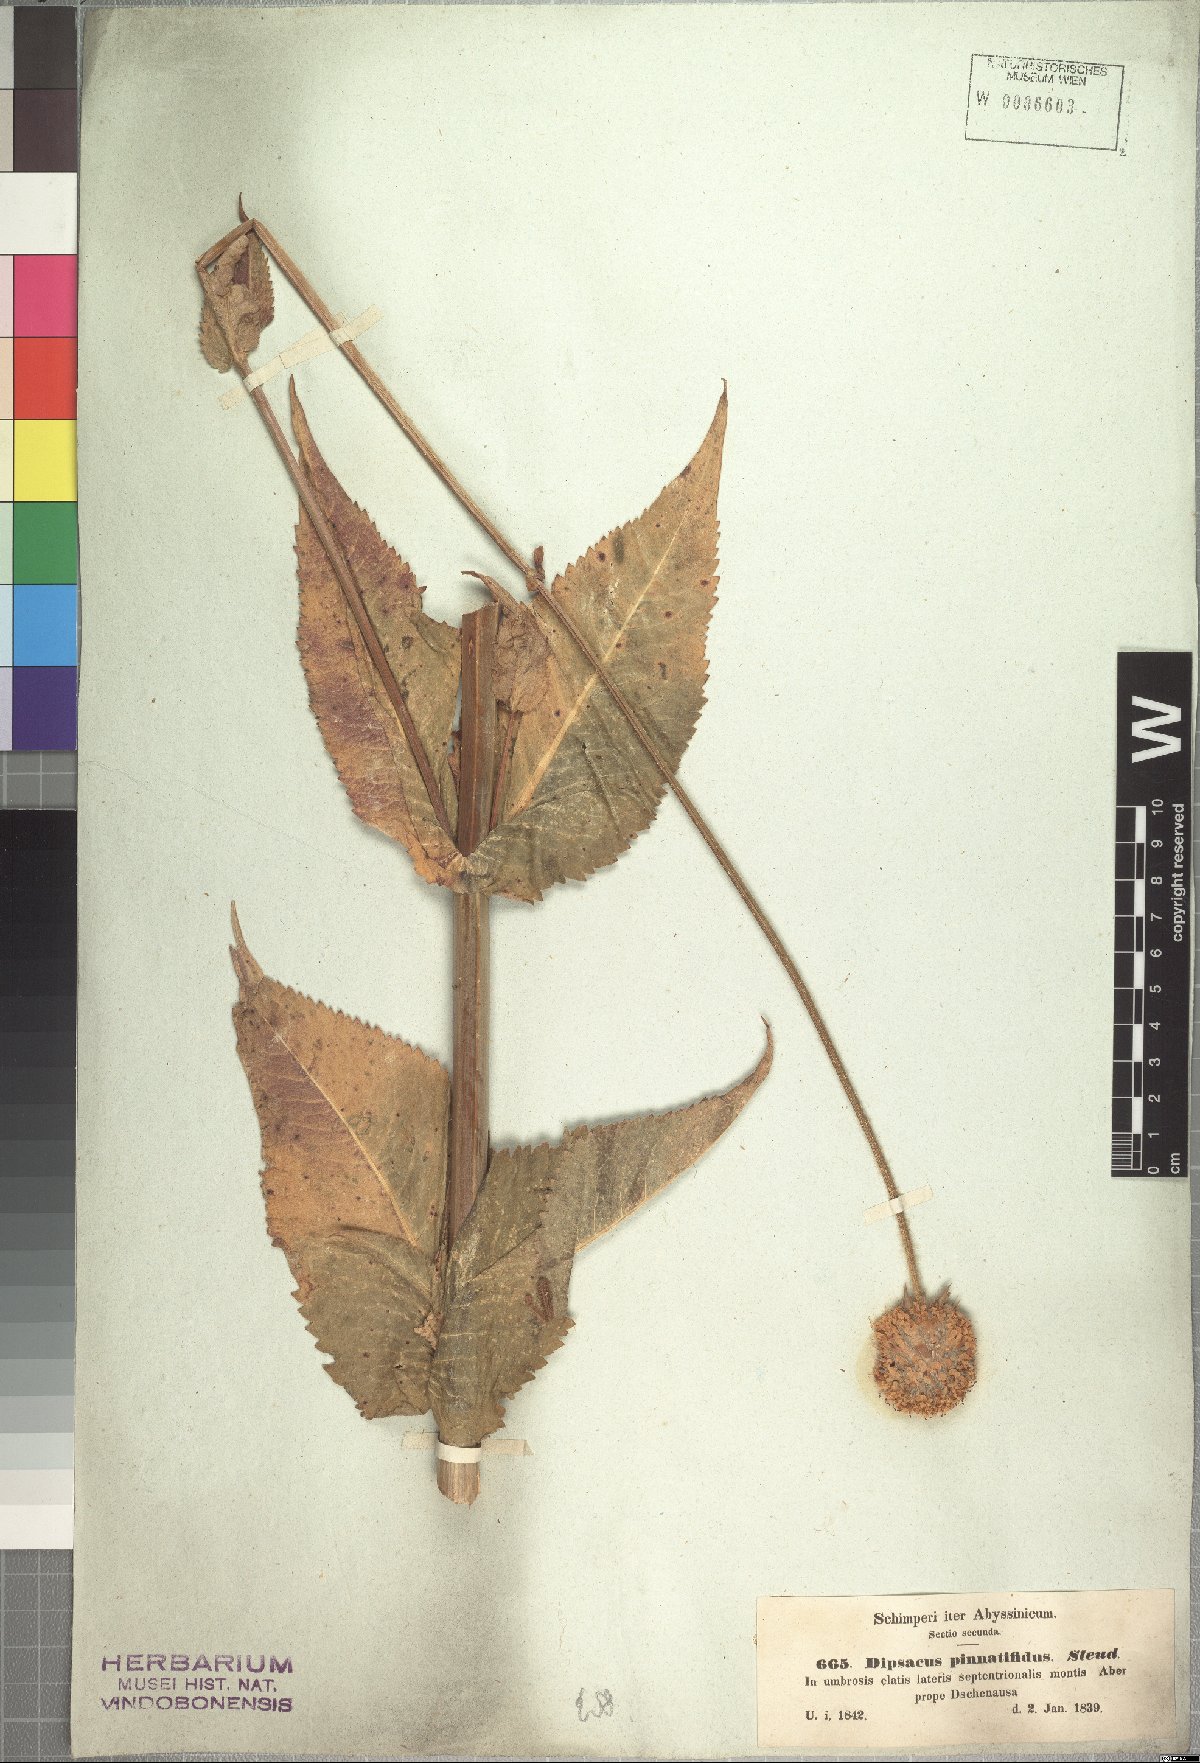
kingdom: Plantae
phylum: Tracheophyta
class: Magnoliopsida
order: Dipsacales
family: Caprifoliaceae
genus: Dipsacus
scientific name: Dipsacus pinnatifidus
